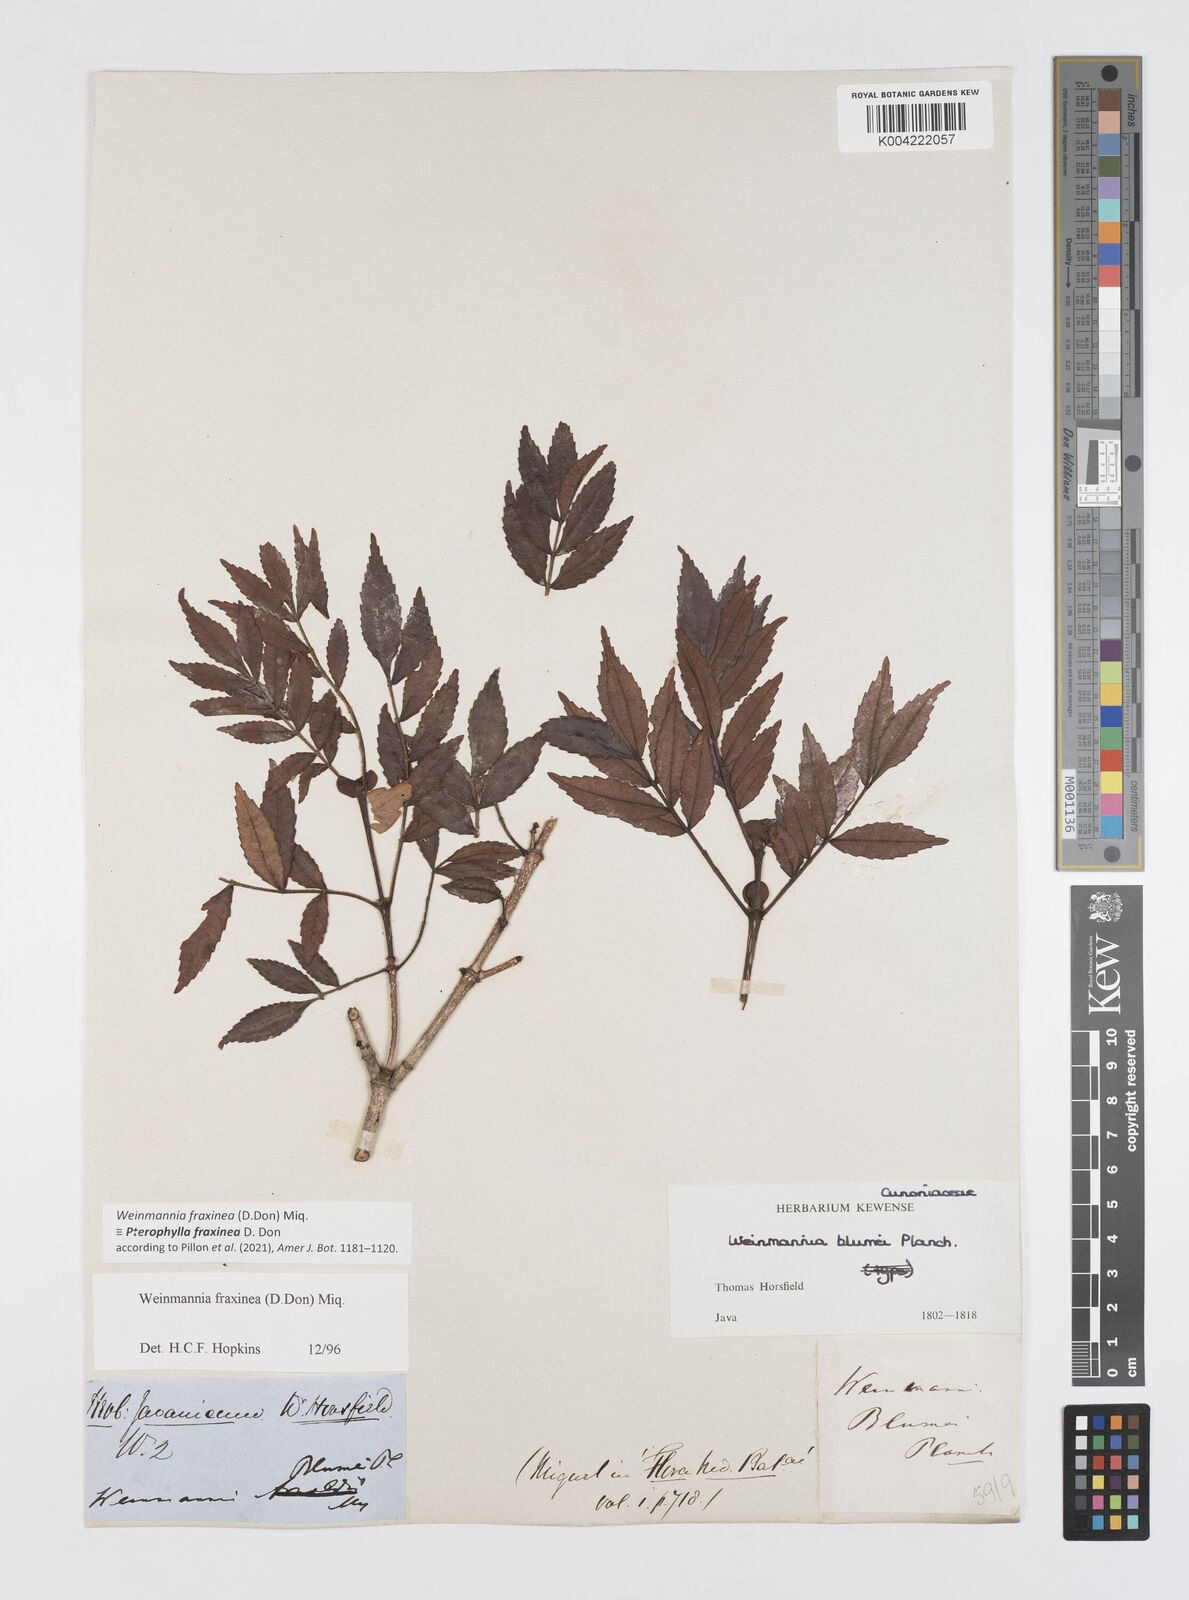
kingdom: Plantae
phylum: Tracheophyta
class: Magnoliopsida
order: Oxalidales
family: Cunoniaceae
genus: Pterophylla
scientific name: Pterophylla fraxinea
